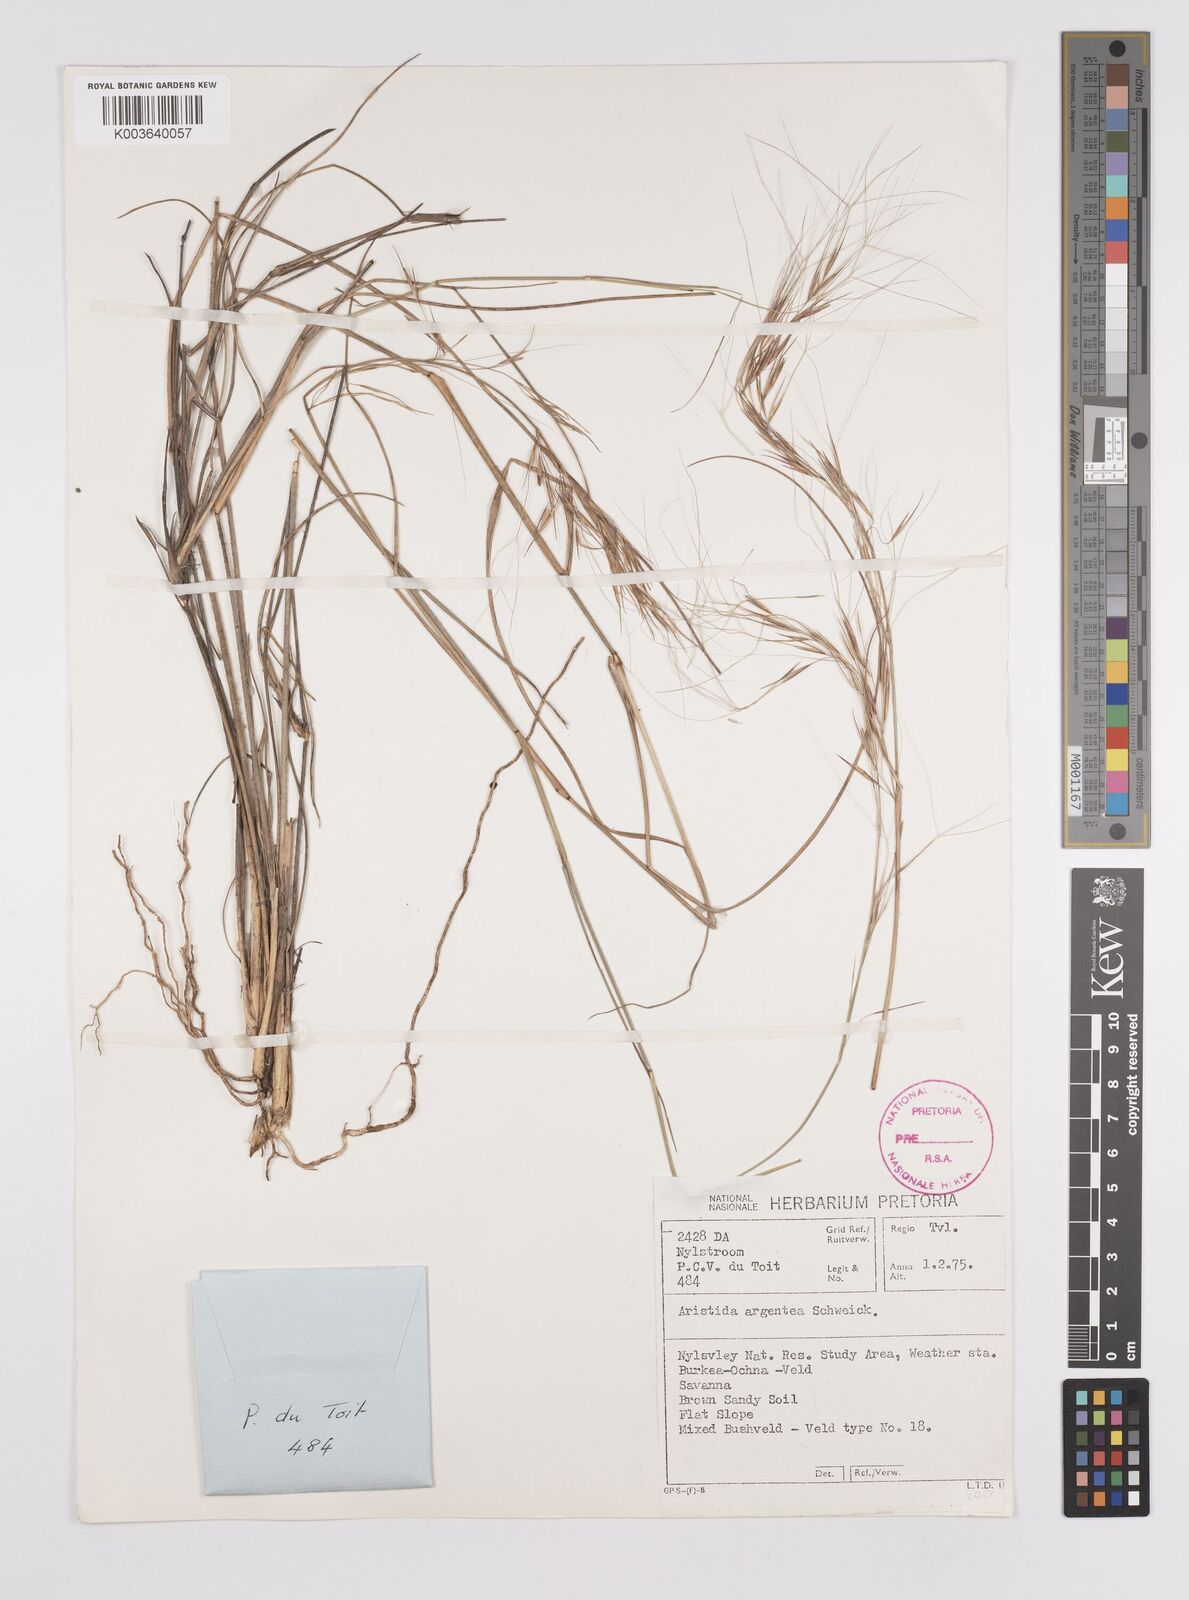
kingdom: Plantae
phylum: Tracheophyta
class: Liliopsida
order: Poales
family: Poaceae
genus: Aristida
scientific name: Aristida mollissima
